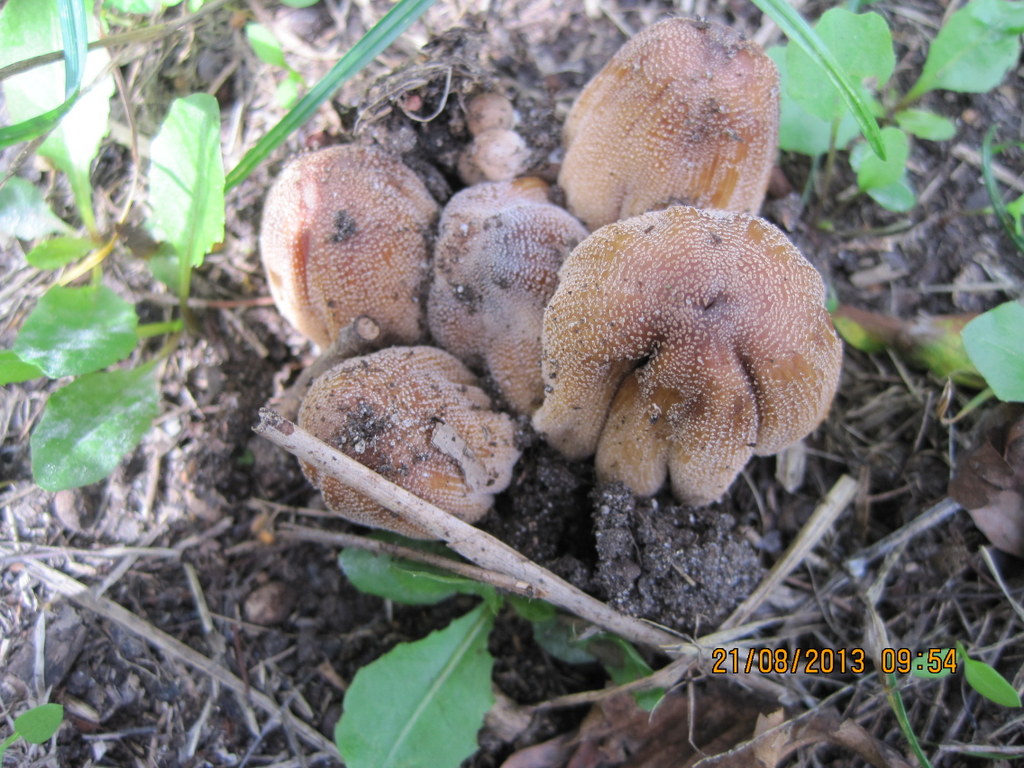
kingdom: Fungi
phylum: Basidiomycota
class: Agaricomycetes
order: Agaricales
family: Psathyrellaceae
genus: Coprinellus
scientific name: Coprinellus micaceus
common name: glimmer-blækhat
